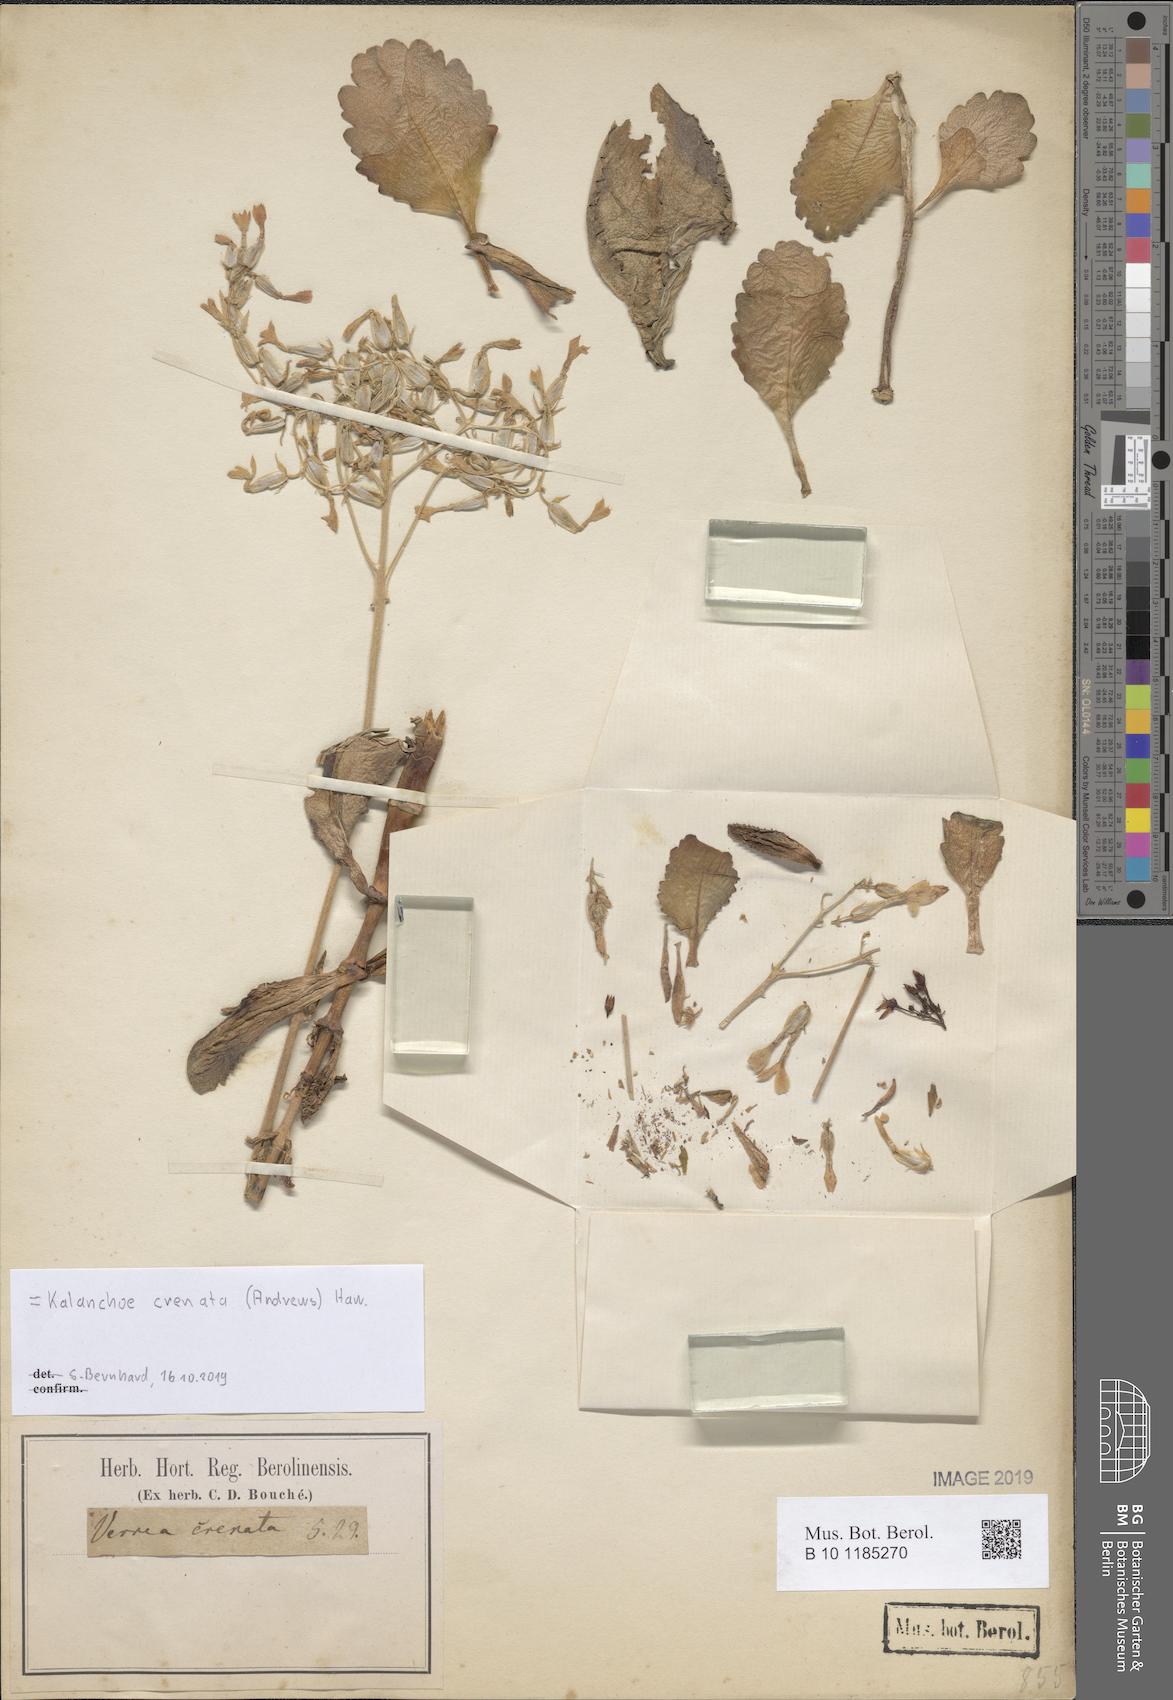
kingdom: Plantae
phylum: Tracheophyta
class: Magnoliopsida
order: Saxifragales
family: Crassulaceae
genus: Kalanchoe
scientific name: Kalanchoe crenata
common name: Neverdie
